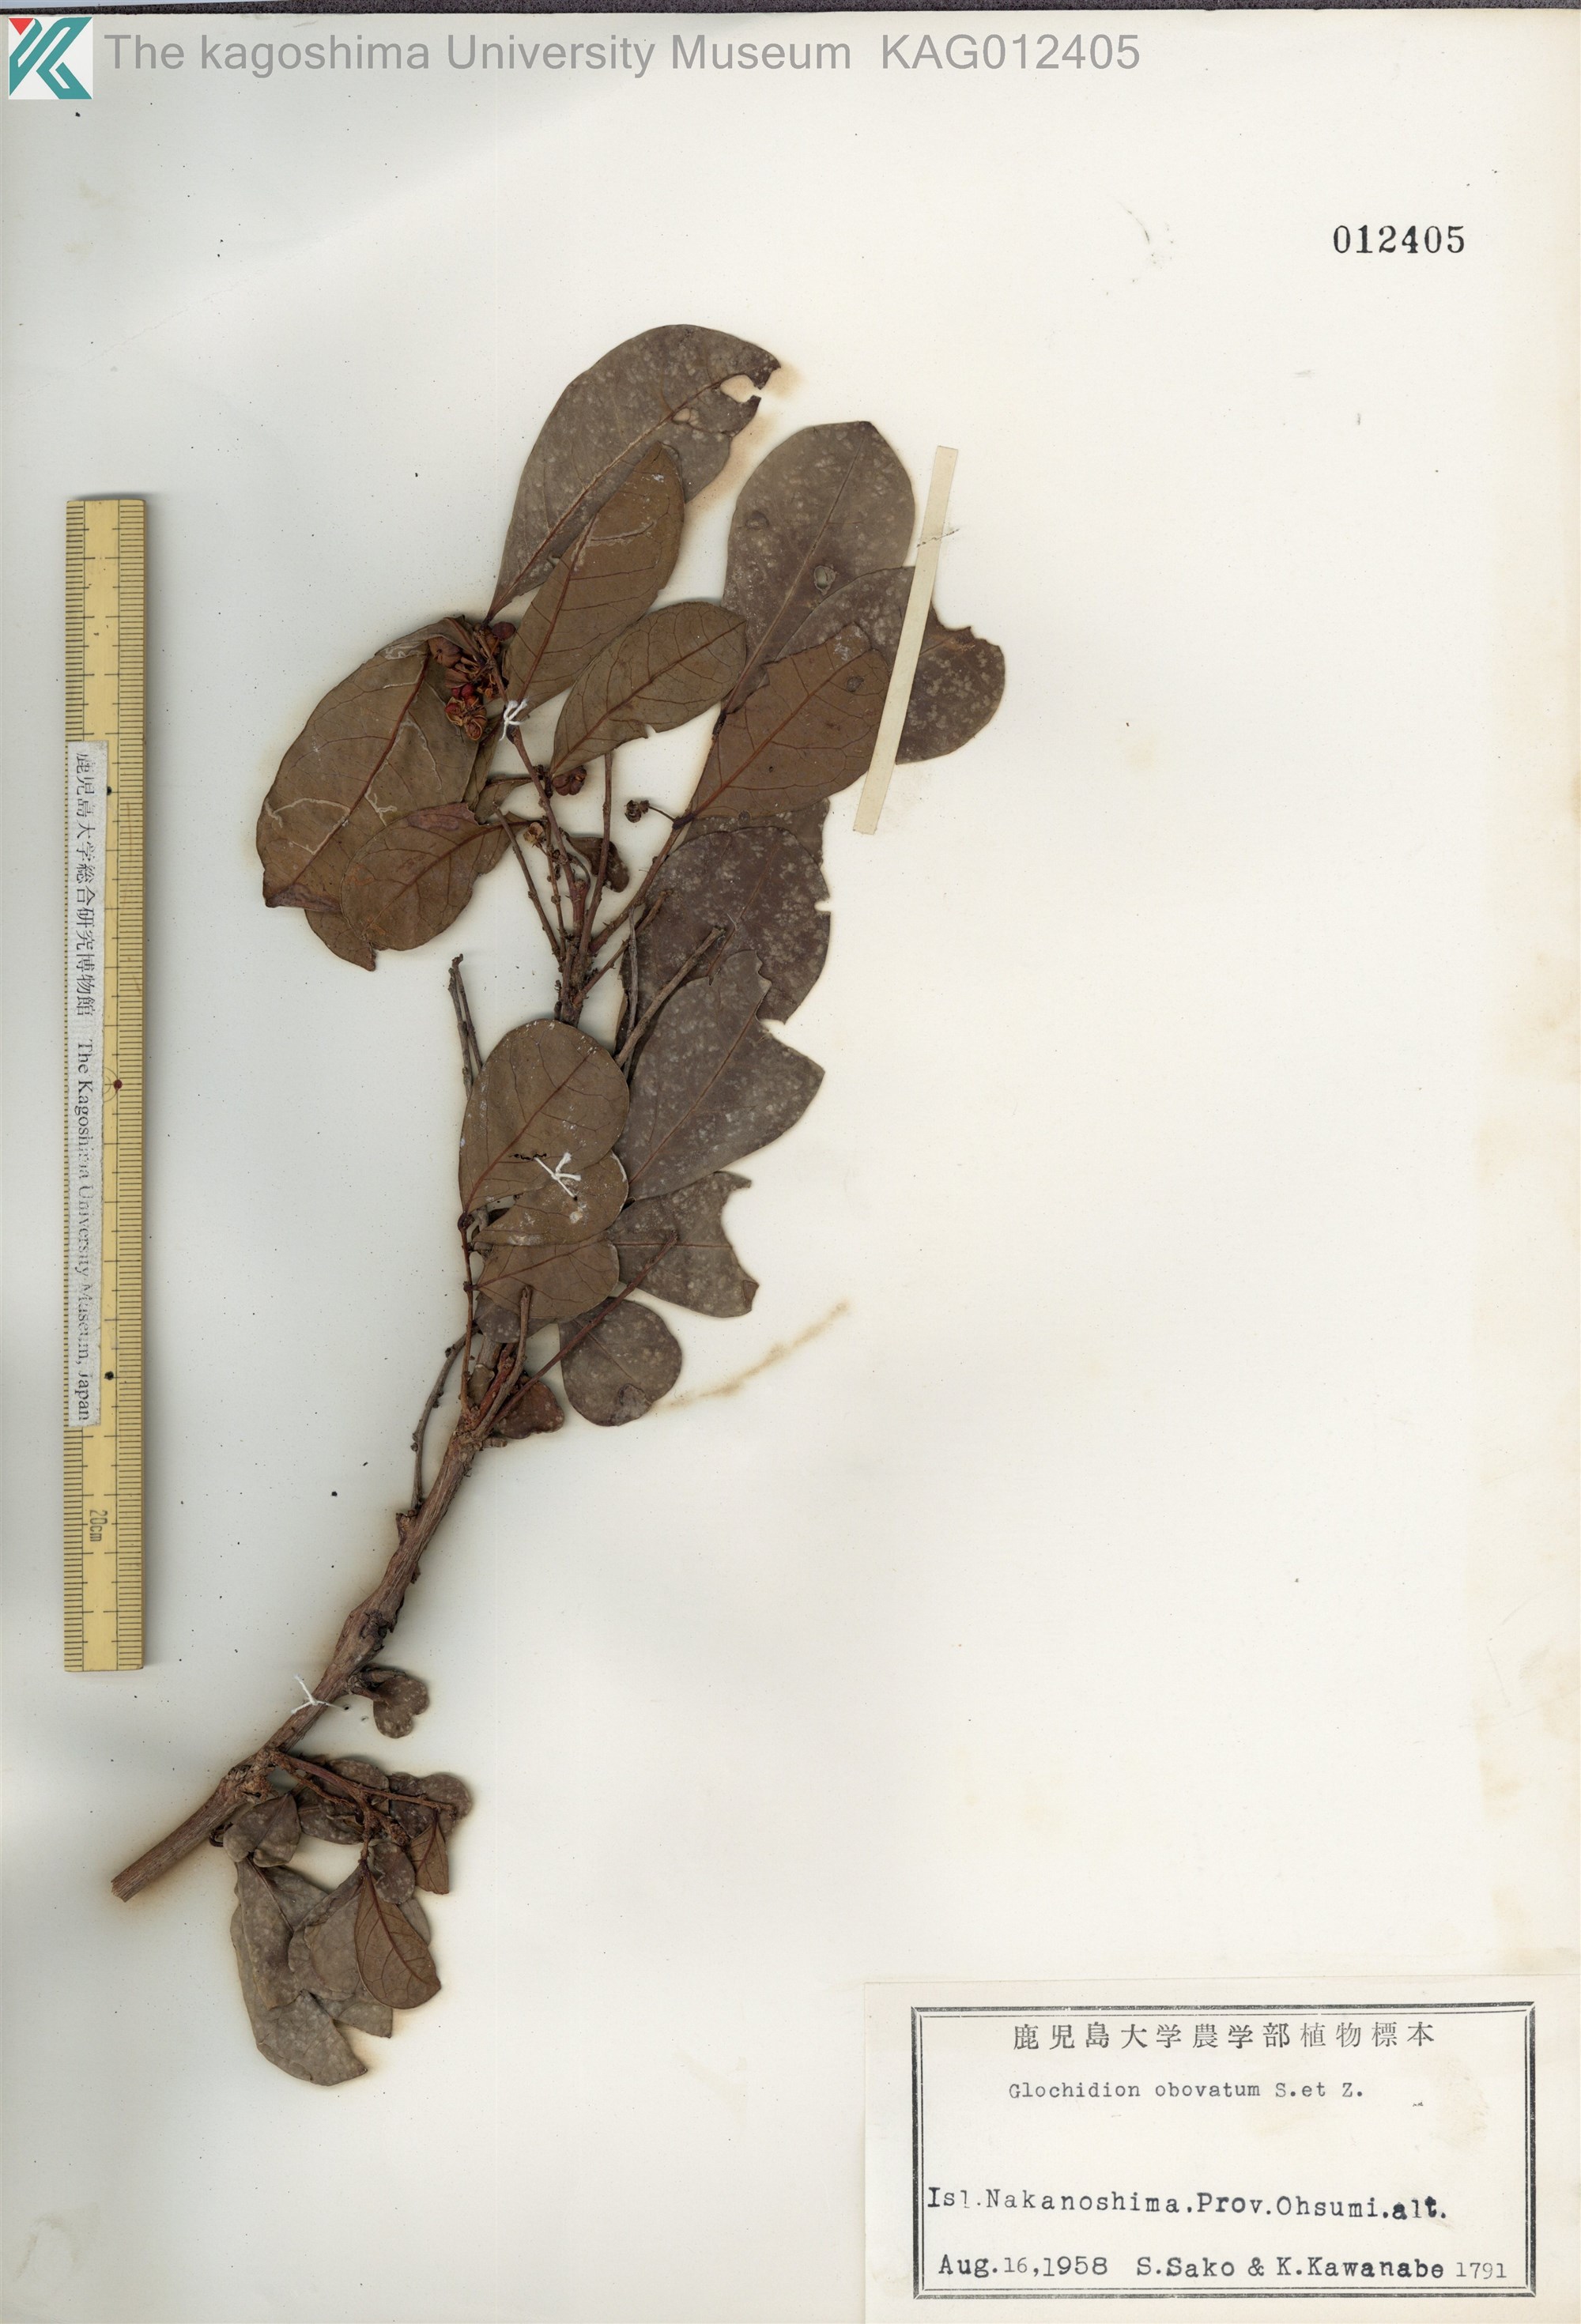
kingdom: Plantae
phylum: Tracheophyta
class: Magnoliopsida
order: Malpighiales
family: Phyllanthaceae
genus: Glochidion
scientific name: Glochidion obovatum
